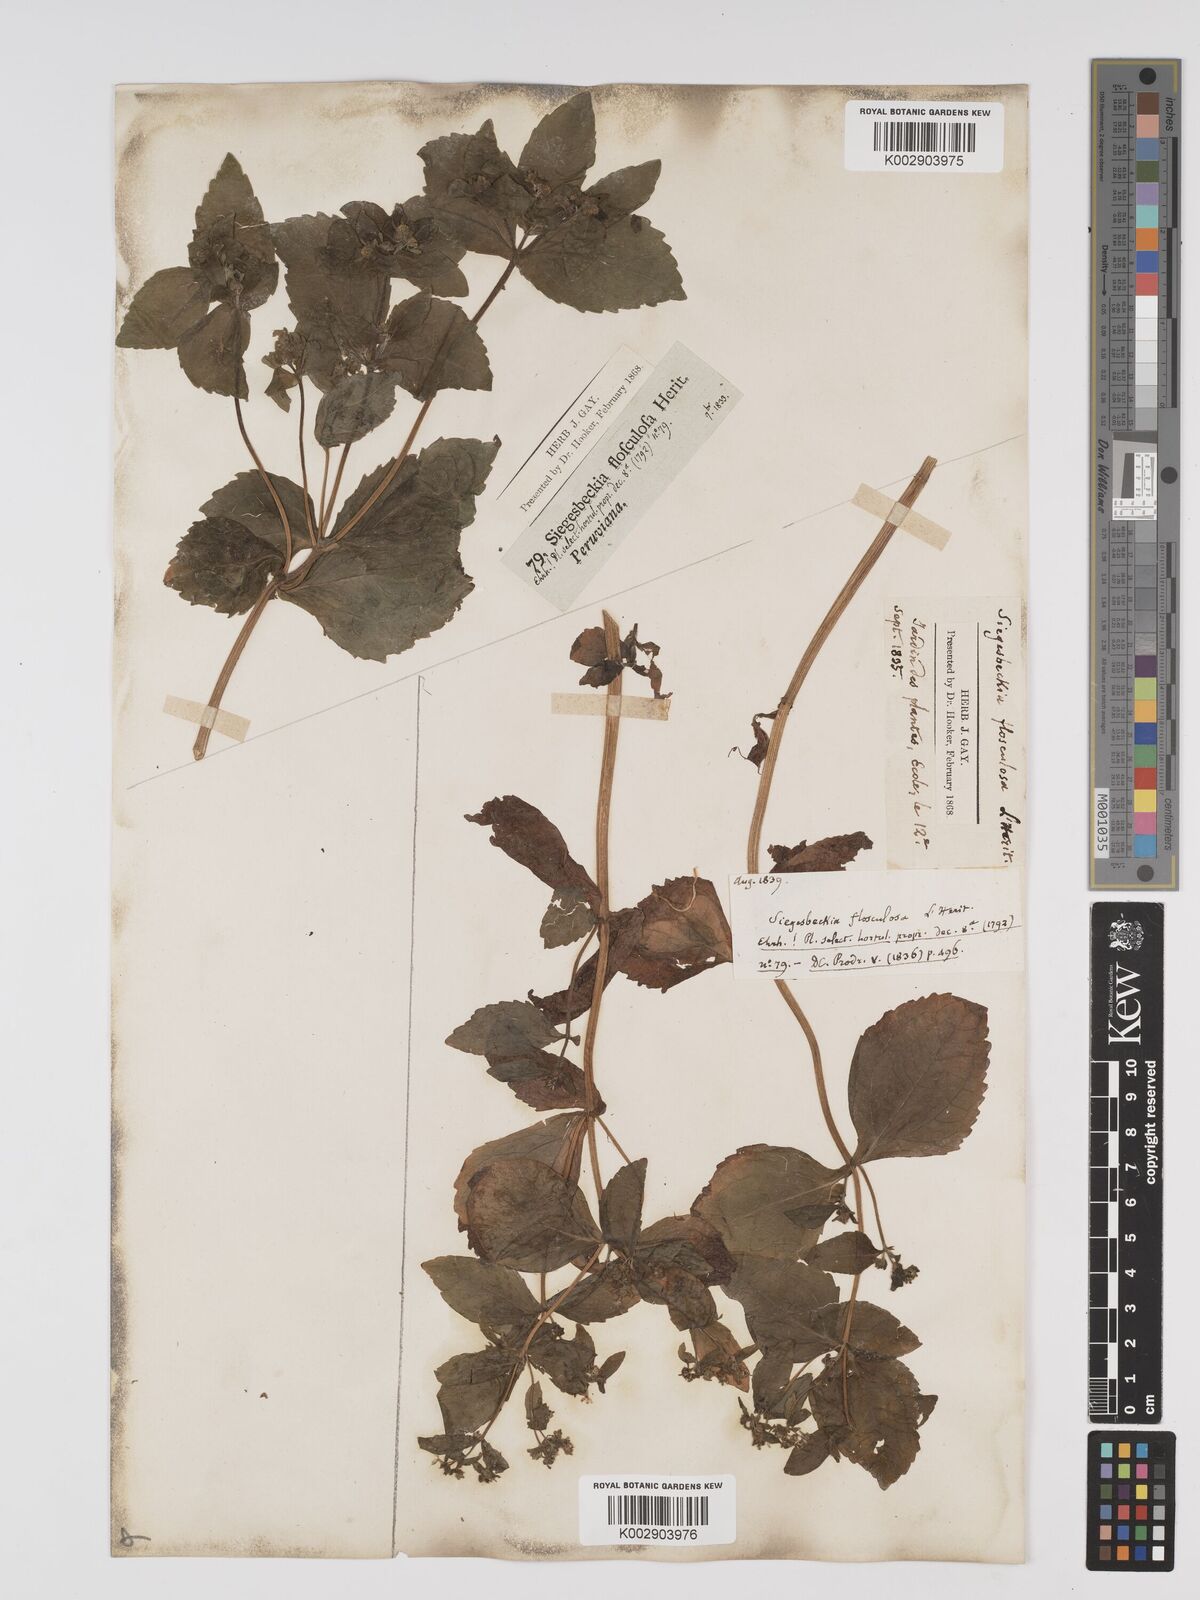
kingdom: Plantae
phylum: Tracheophyta
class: Magnoliopsida
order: Asterales
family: Asteraceae
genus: Sigesbeckia
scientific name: Sigesbeckia flosculosa
